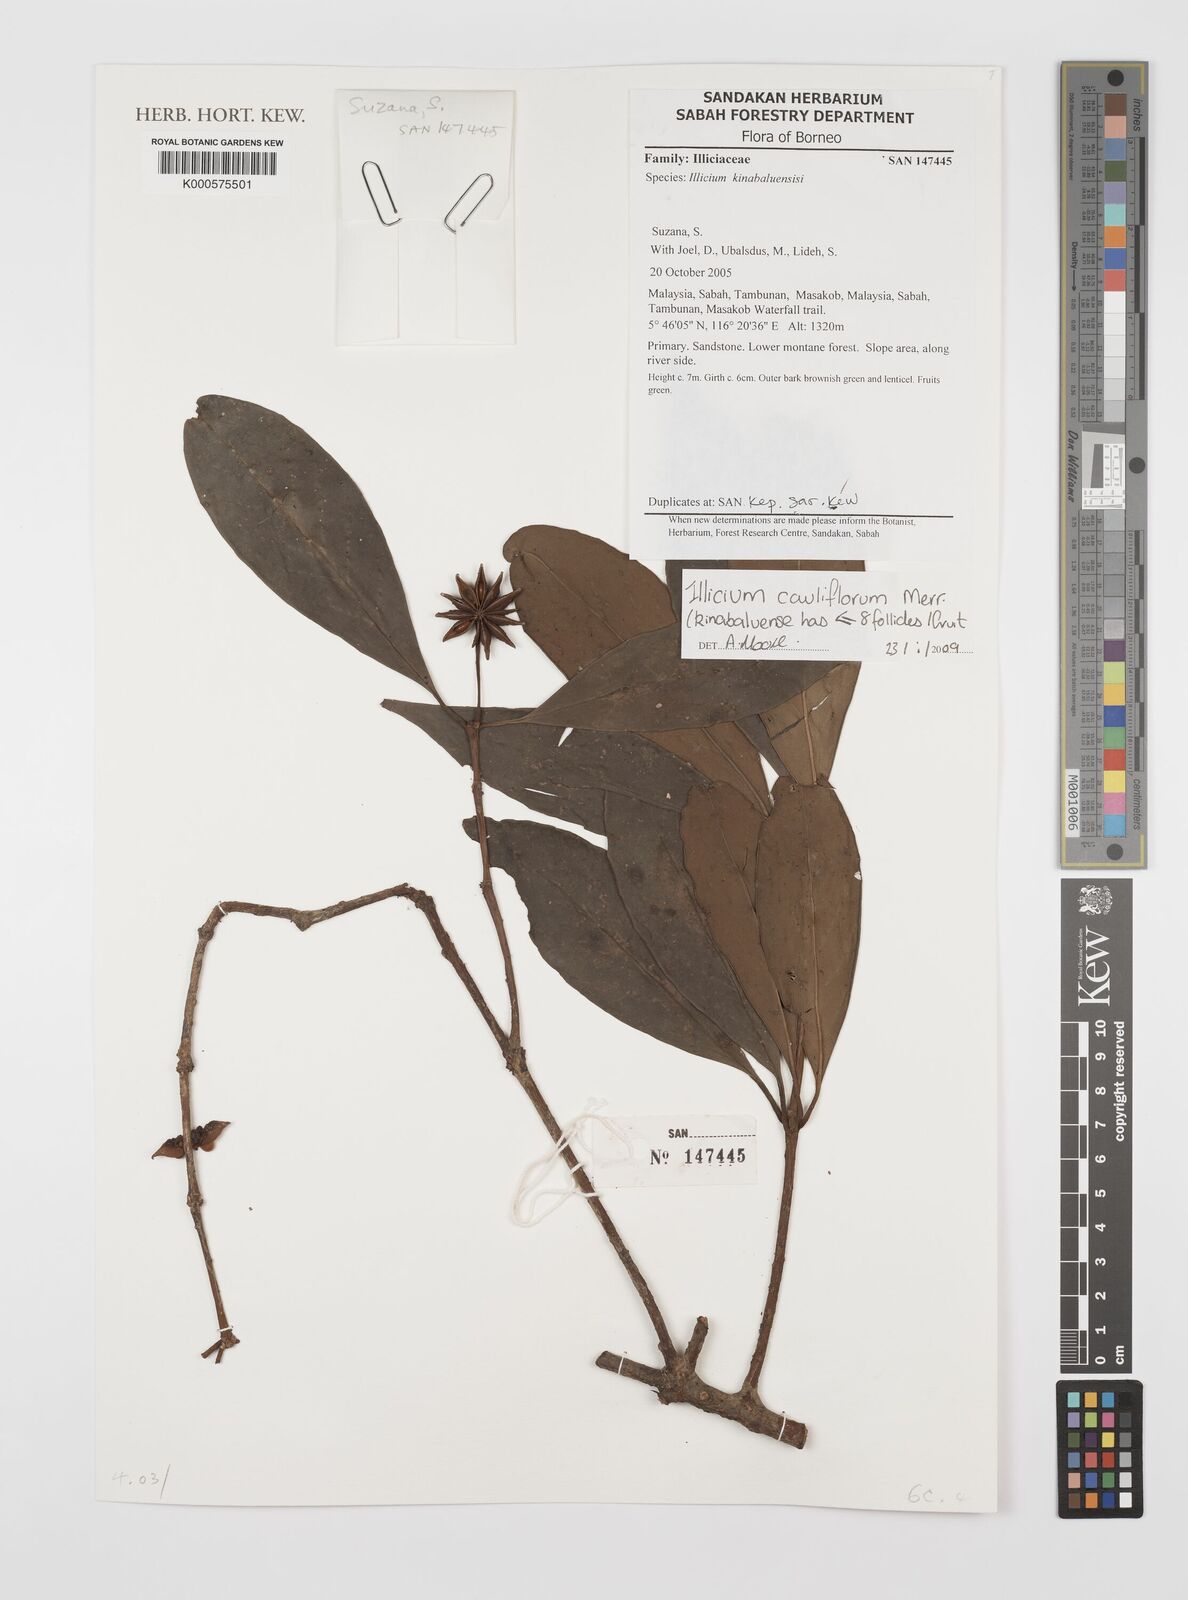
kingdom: Plantae
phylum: Tracheophyta
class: Magnoliopsida
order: Austrobaileyales
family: Schisandraceae
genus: Illicium
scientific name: Illicium stapfii
